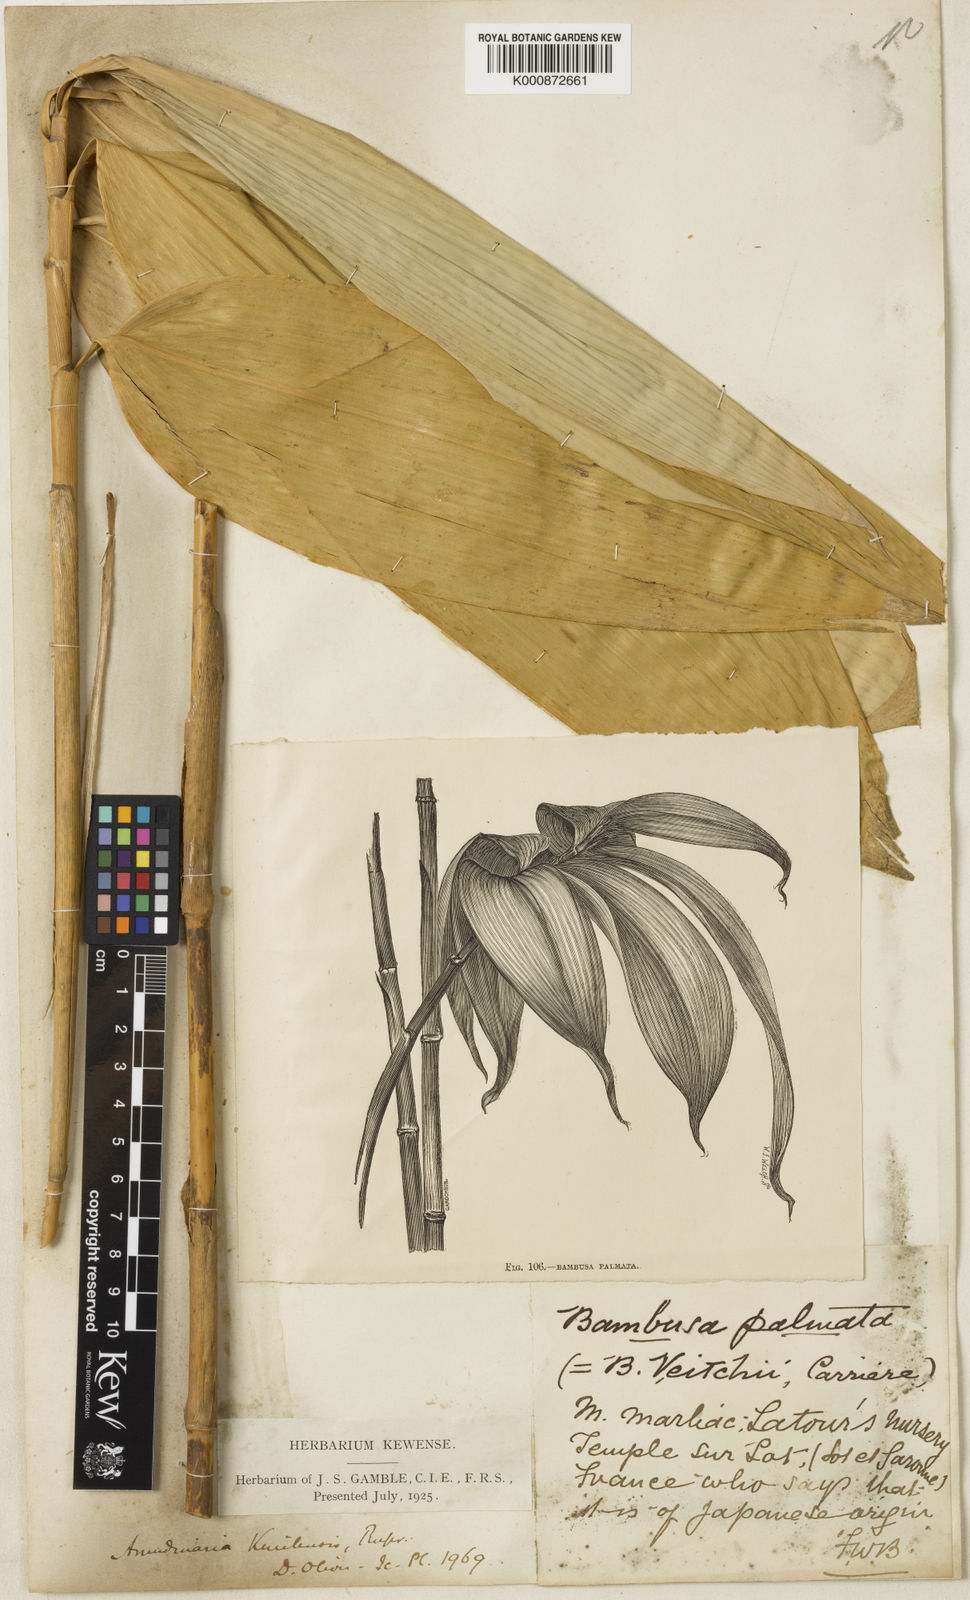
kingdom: Plantae
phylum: Tracheophyta
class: Liliopsida
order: Poales
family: Poaceae
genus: Sasa
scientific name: Sasa palmata
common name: Broad-leaved bamboo
